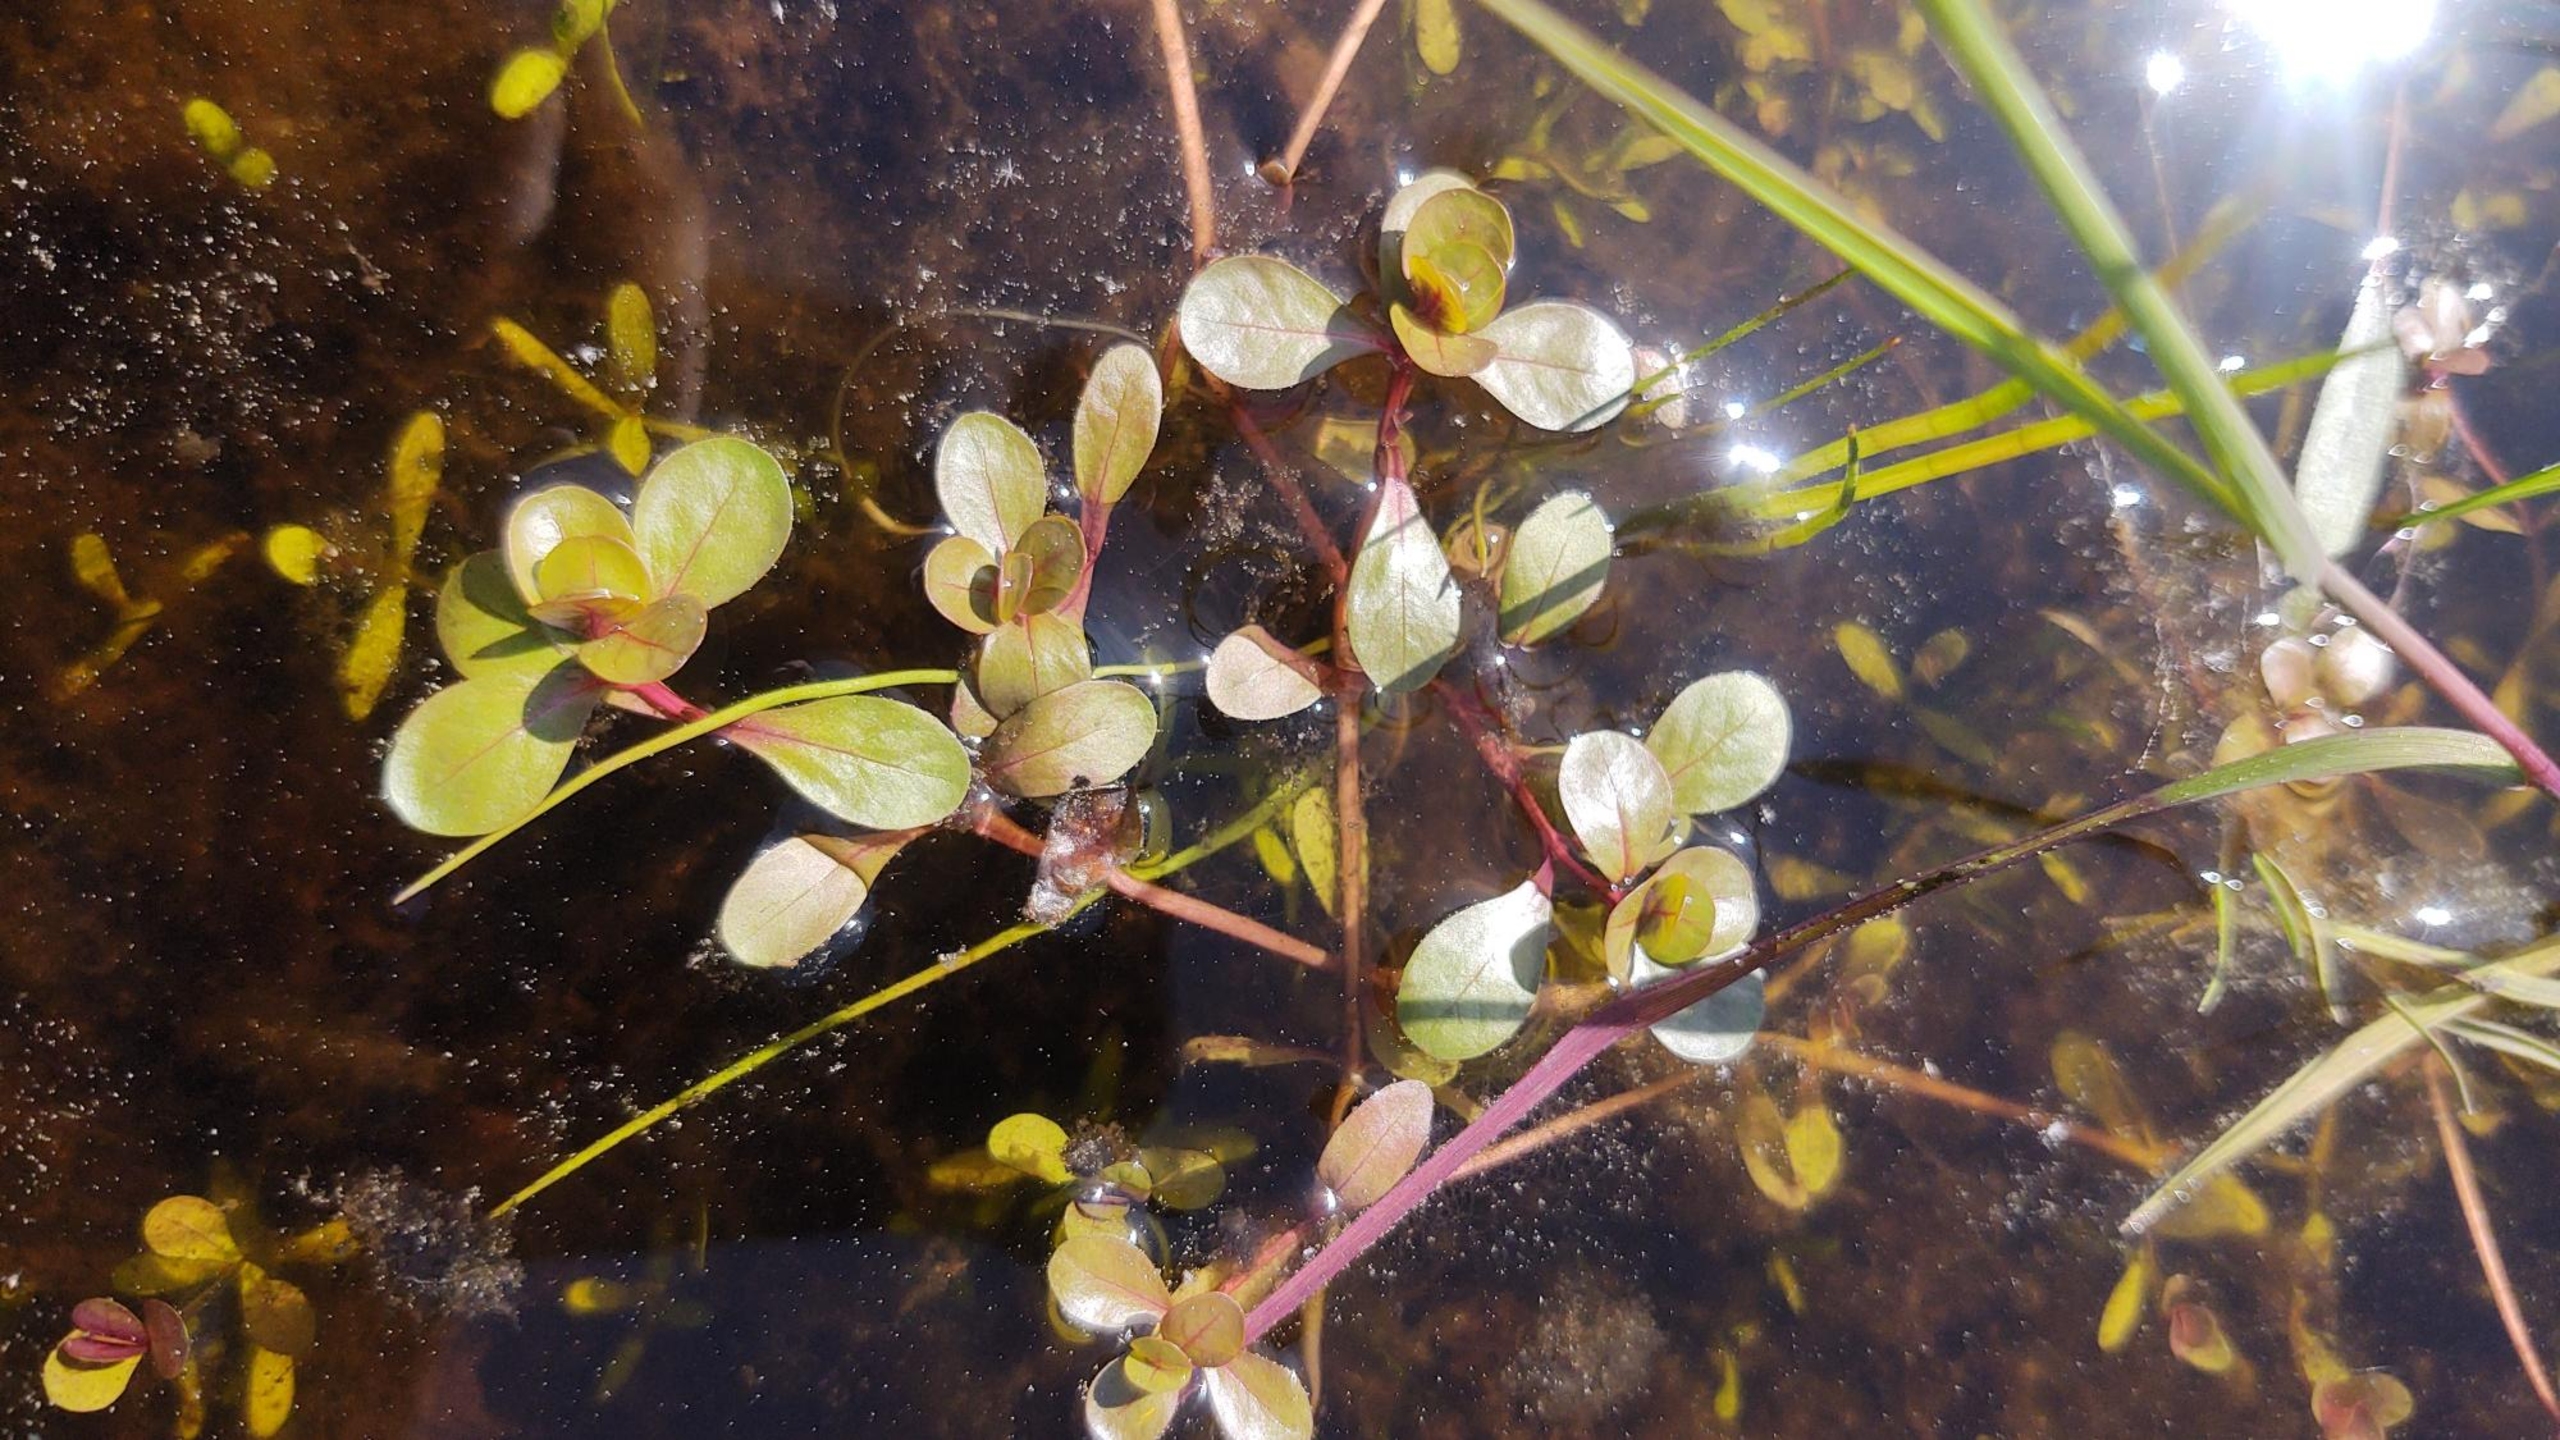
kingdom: Plantae
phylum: Tracheophyta
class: Magnoliopsida
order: Myrtales
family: Lythraceae
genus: Lythrum
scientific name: Lythrum portula
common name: Vandportulak
